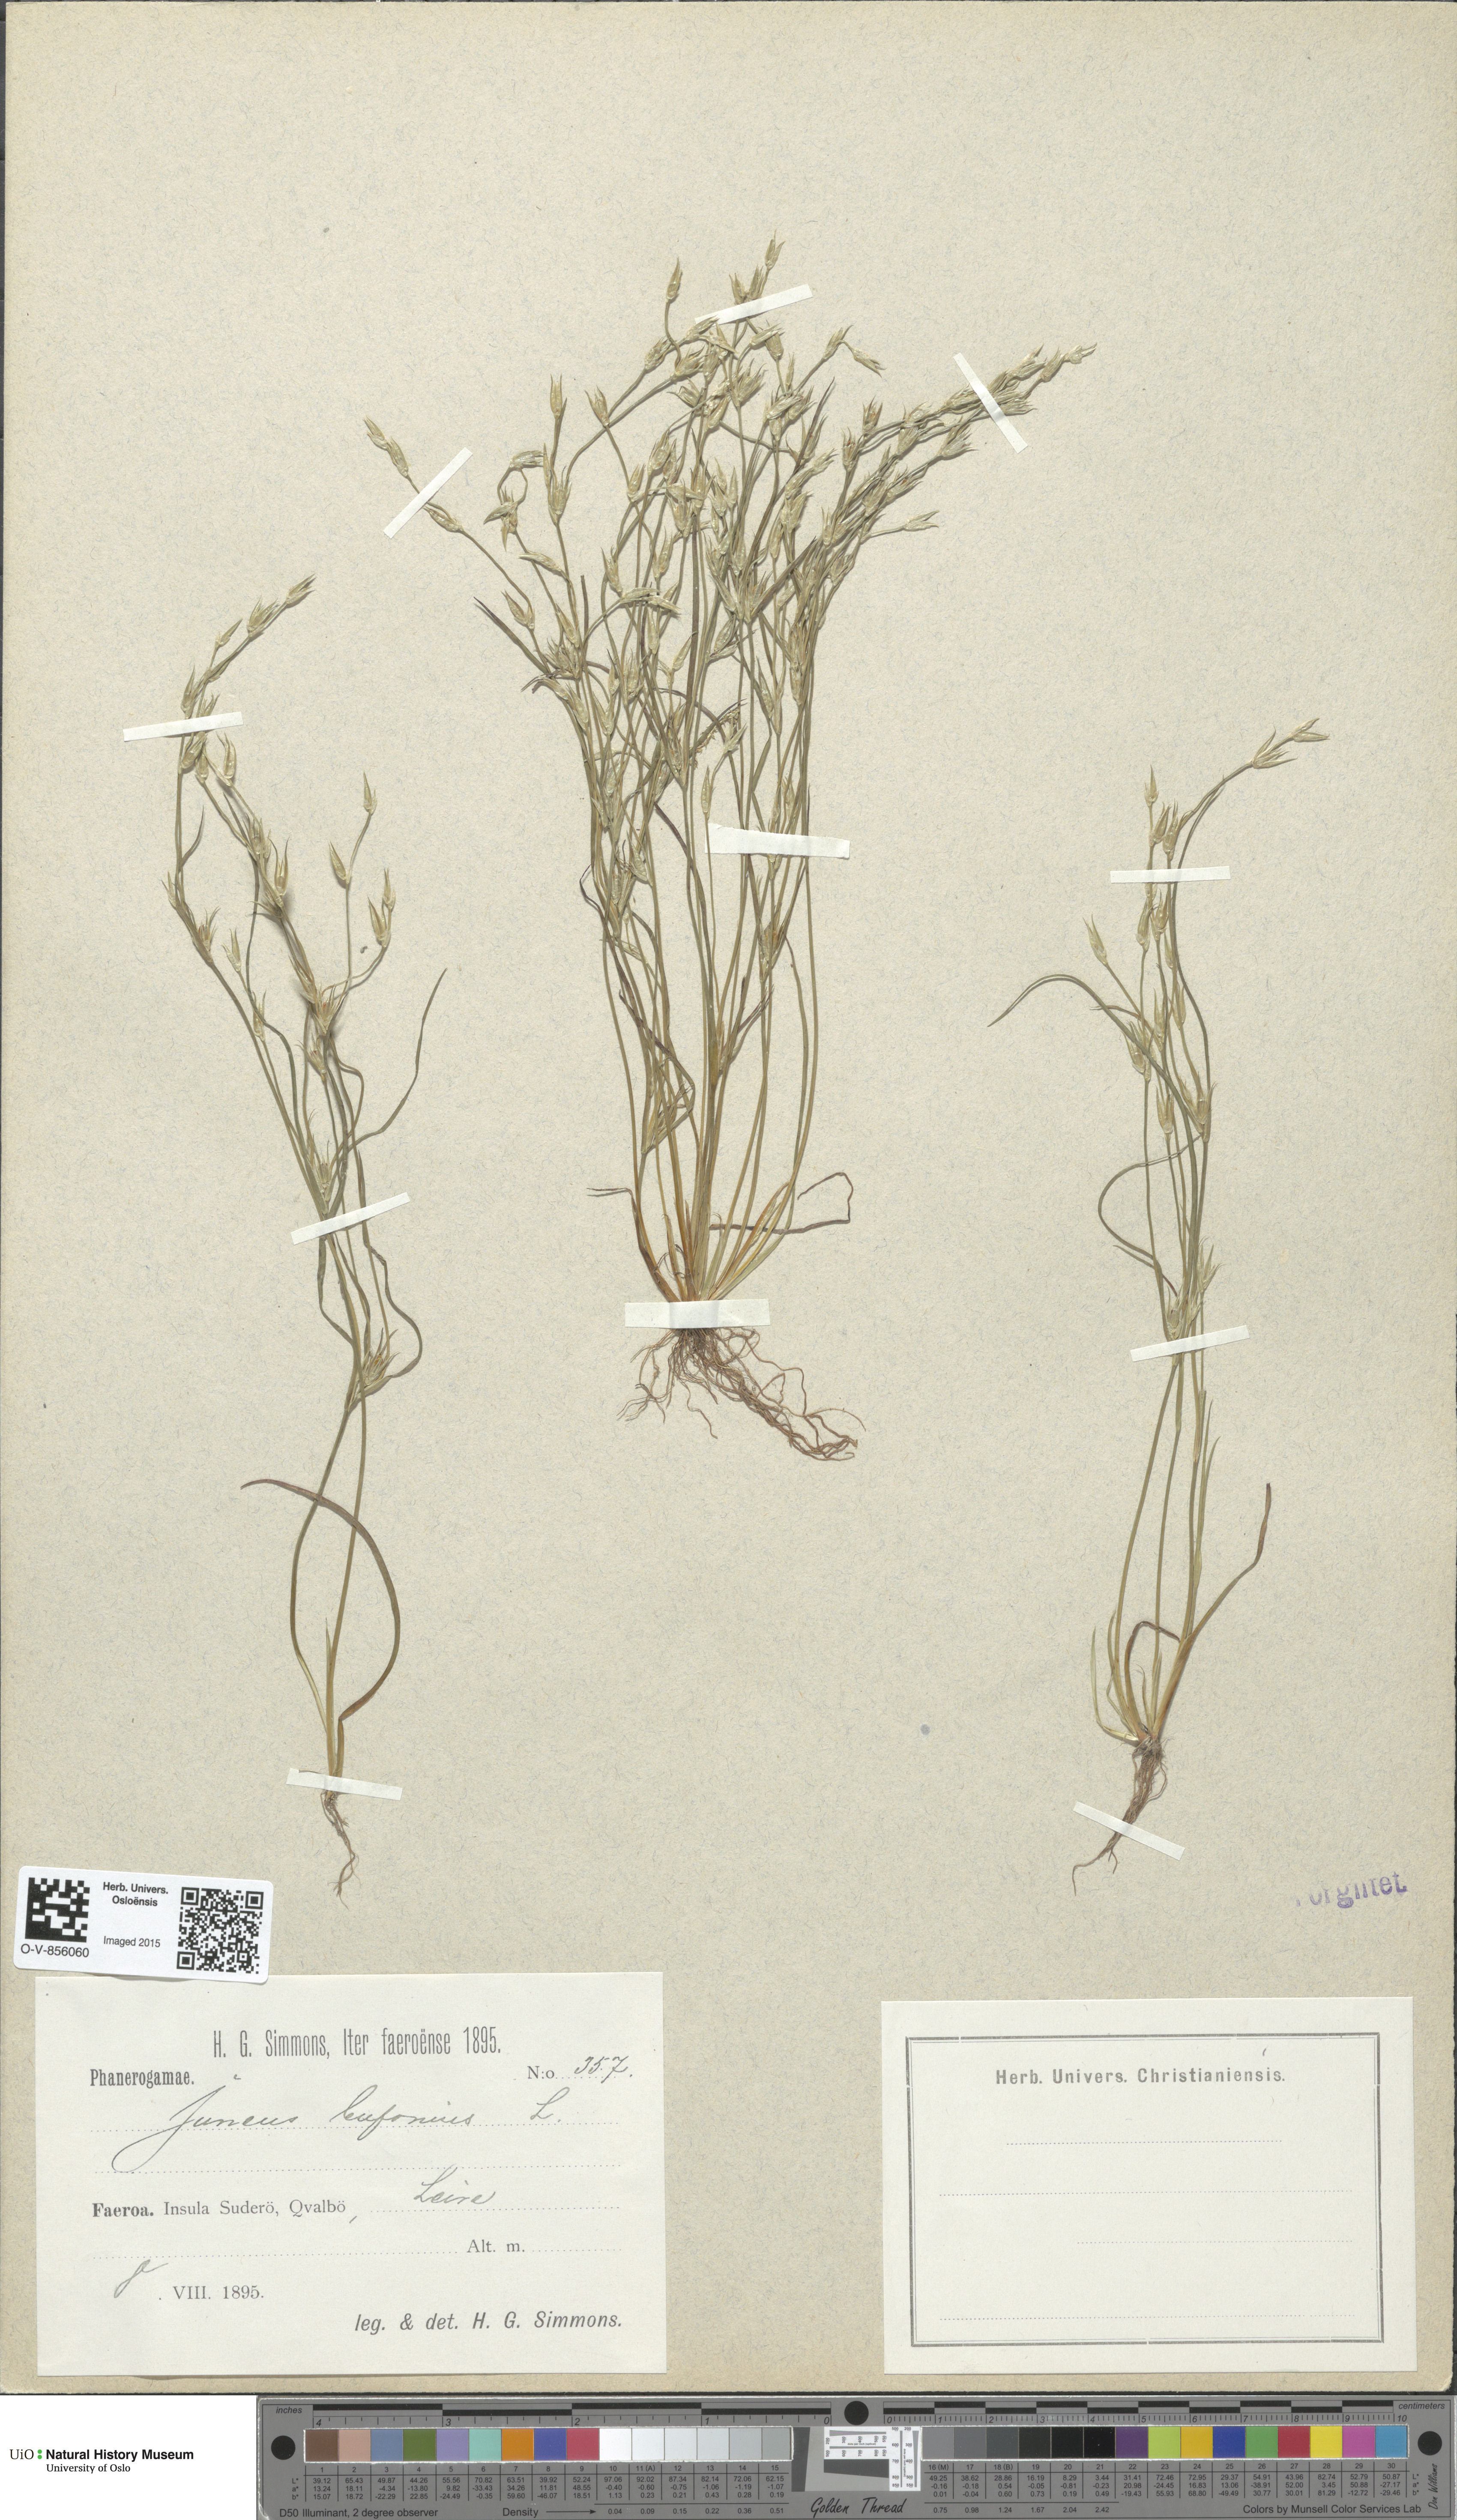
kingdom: Plantae
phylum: Tracheophyta
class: Liliopsida
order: Poales
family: Juncaceae
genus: Juncus
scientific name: Juncus bufonius
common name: Toad rush
